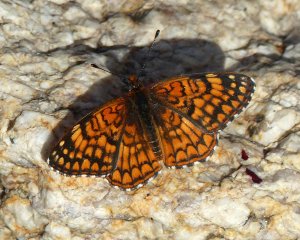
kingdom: Animalia
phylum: Arthropoda
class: Insecta
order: Lepidoptera
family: Nymphalidae
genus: Chlosyne
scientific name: Chlosyne acastus
